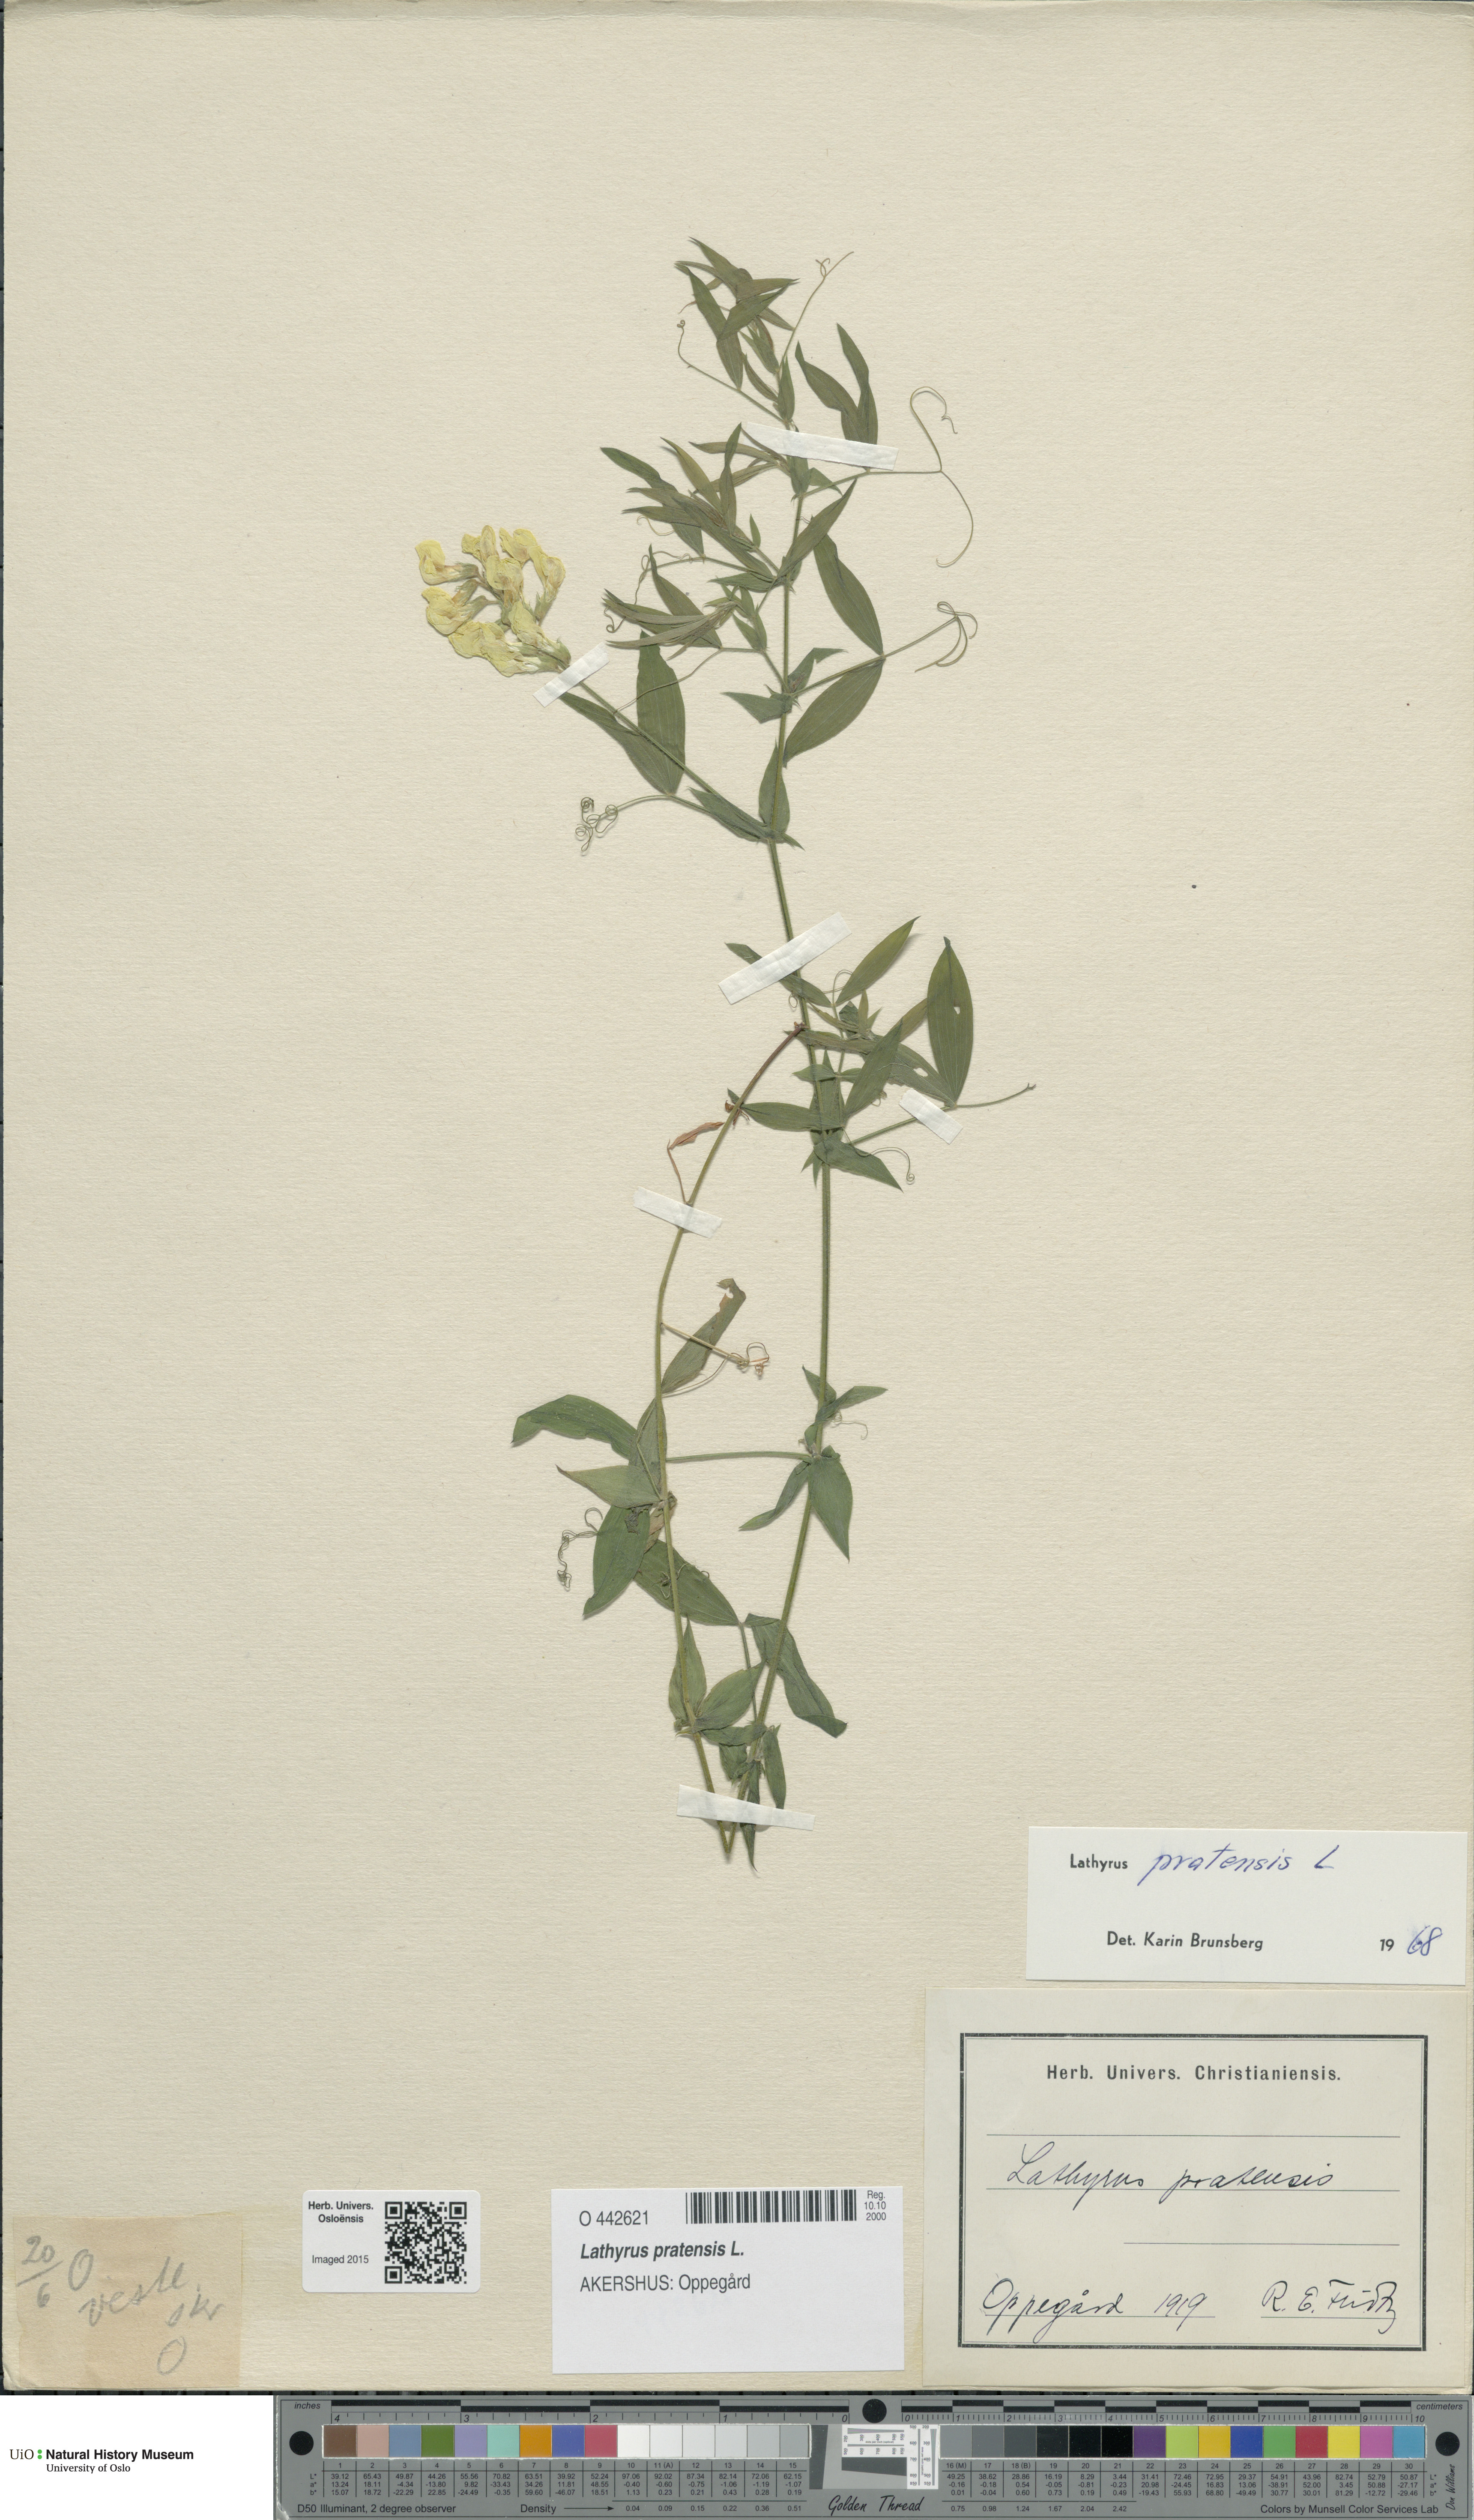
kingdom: Plantae
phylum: Tracheophyta
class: Magnoliopsida
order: Fabales
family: Fabaceae
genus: Lathyrus
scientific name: Lathyrus pratensis
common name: Meadow vetchling
